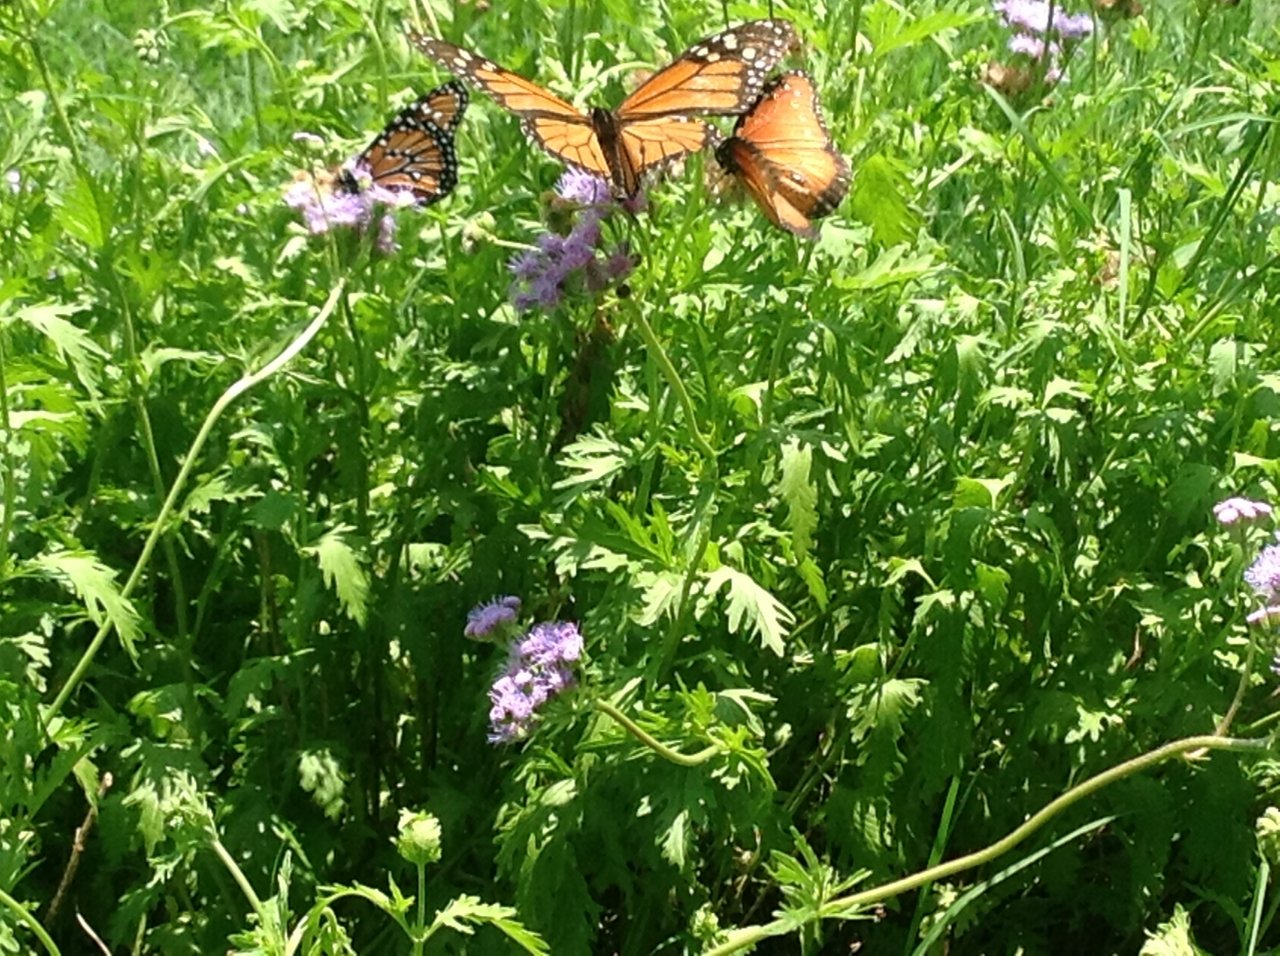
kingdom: Animalia
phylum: Arthropoda
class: Insecta
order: Lepidoptera
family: Nymphalidae
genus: Danaus
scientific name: Danaus gilippus
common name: Queen
